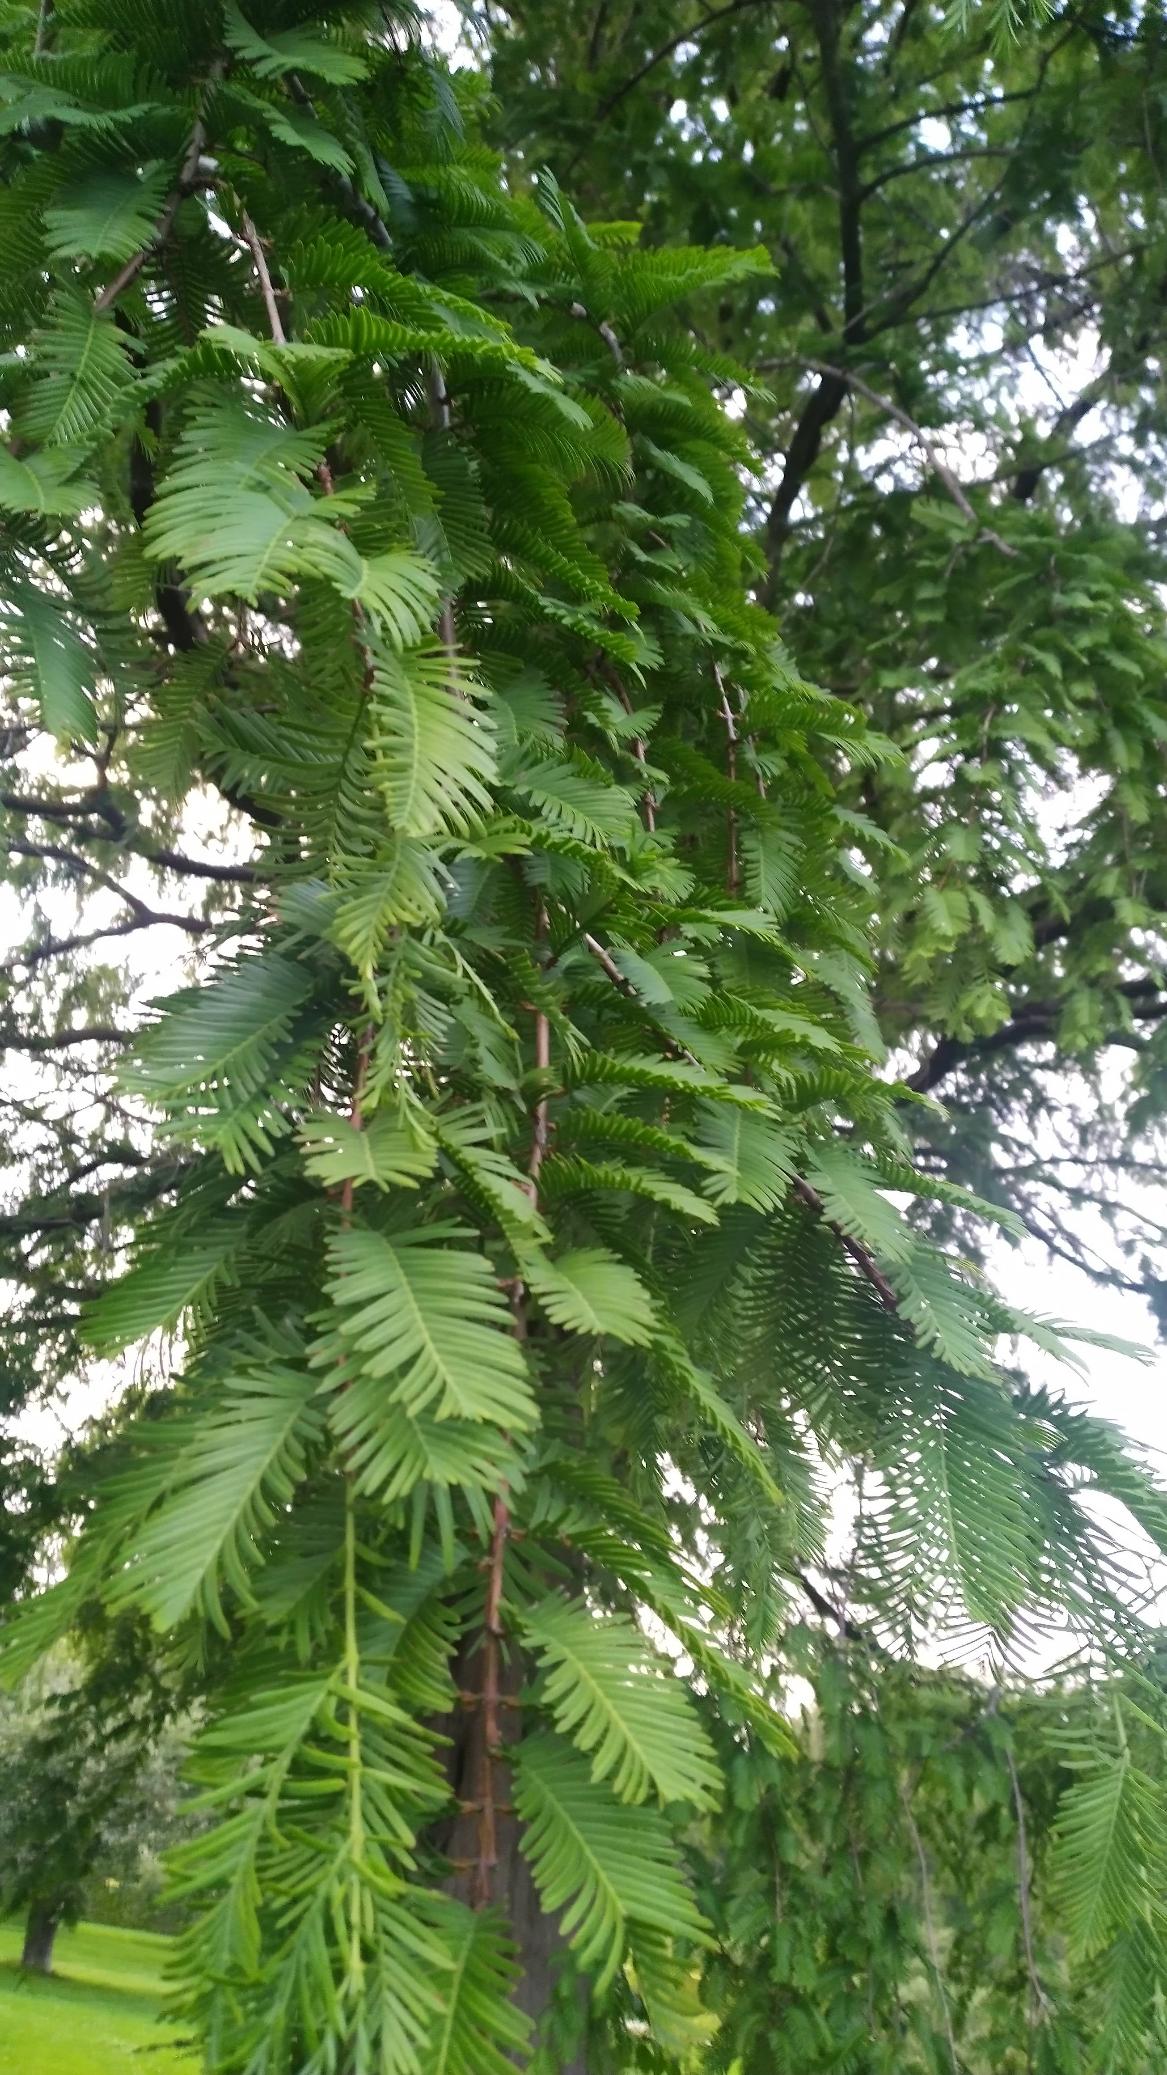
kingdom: Plantae
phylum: Tracheophyta
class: Pinopsida
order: Pinales
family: Cupressaceae
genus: Metasequoia
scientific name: Metasequoia glyptostroboides
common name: Vandgran
